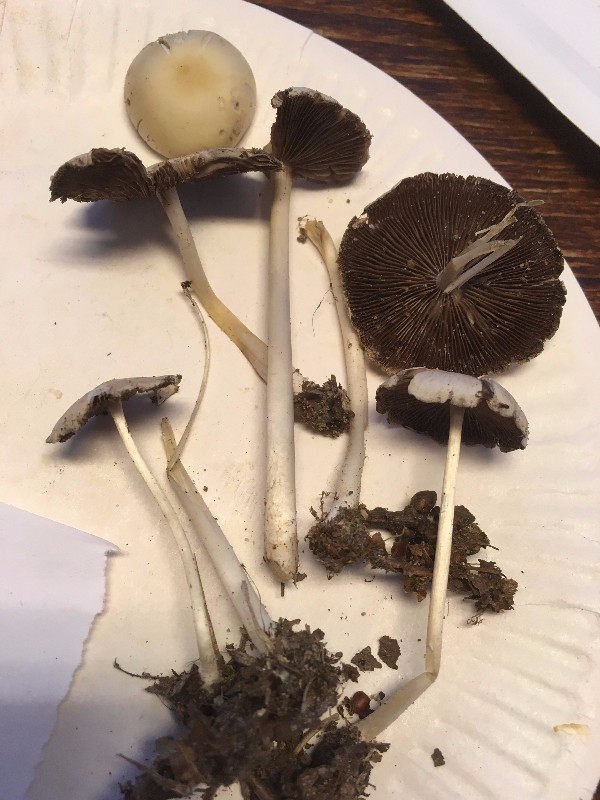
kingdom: Fungi
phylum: Basidiomycota
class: Agaricomycetes
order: Agaricales
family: Psathyrellaceae
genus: Candolleomyces
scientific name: Candolleomyces candolleanus
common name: Candolles mørkhat
